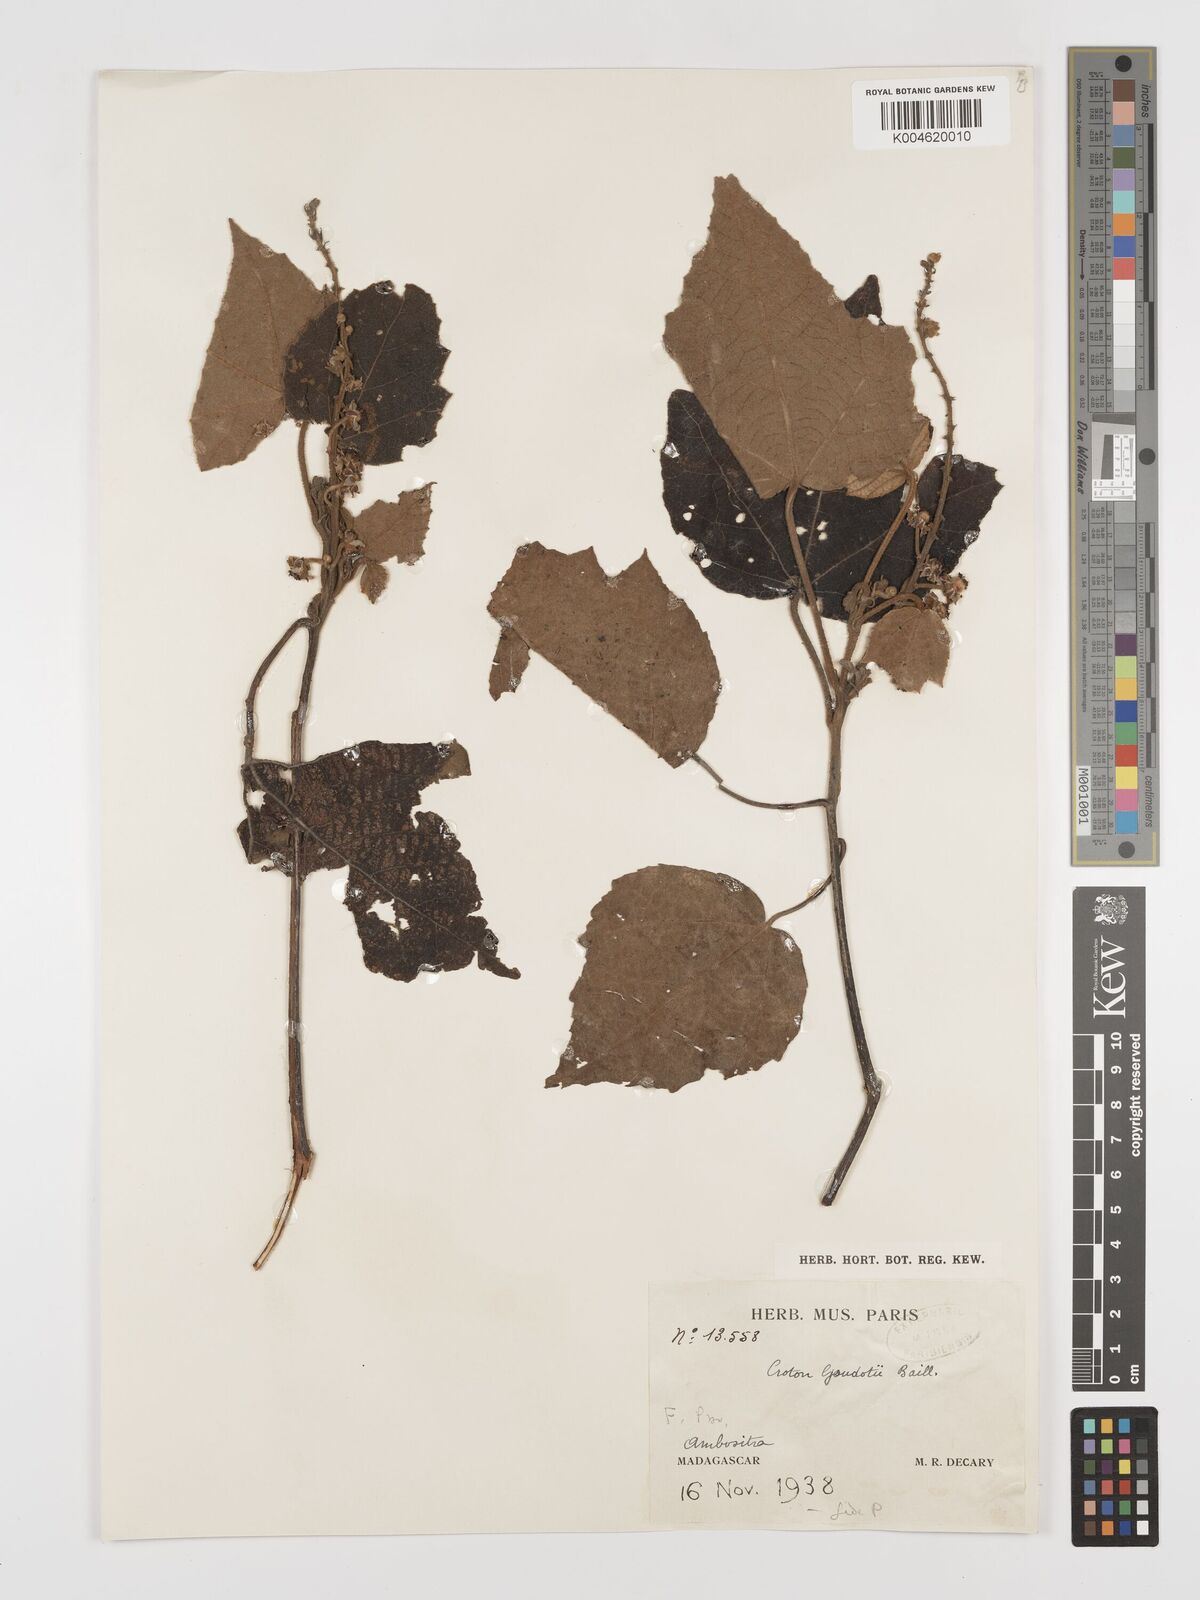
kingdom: Plantae
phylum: Tracheophyta
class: Magnoliopsida
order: Malpighiales
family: Euphorbiaceae
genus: Croton
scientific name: Croton goudotii
